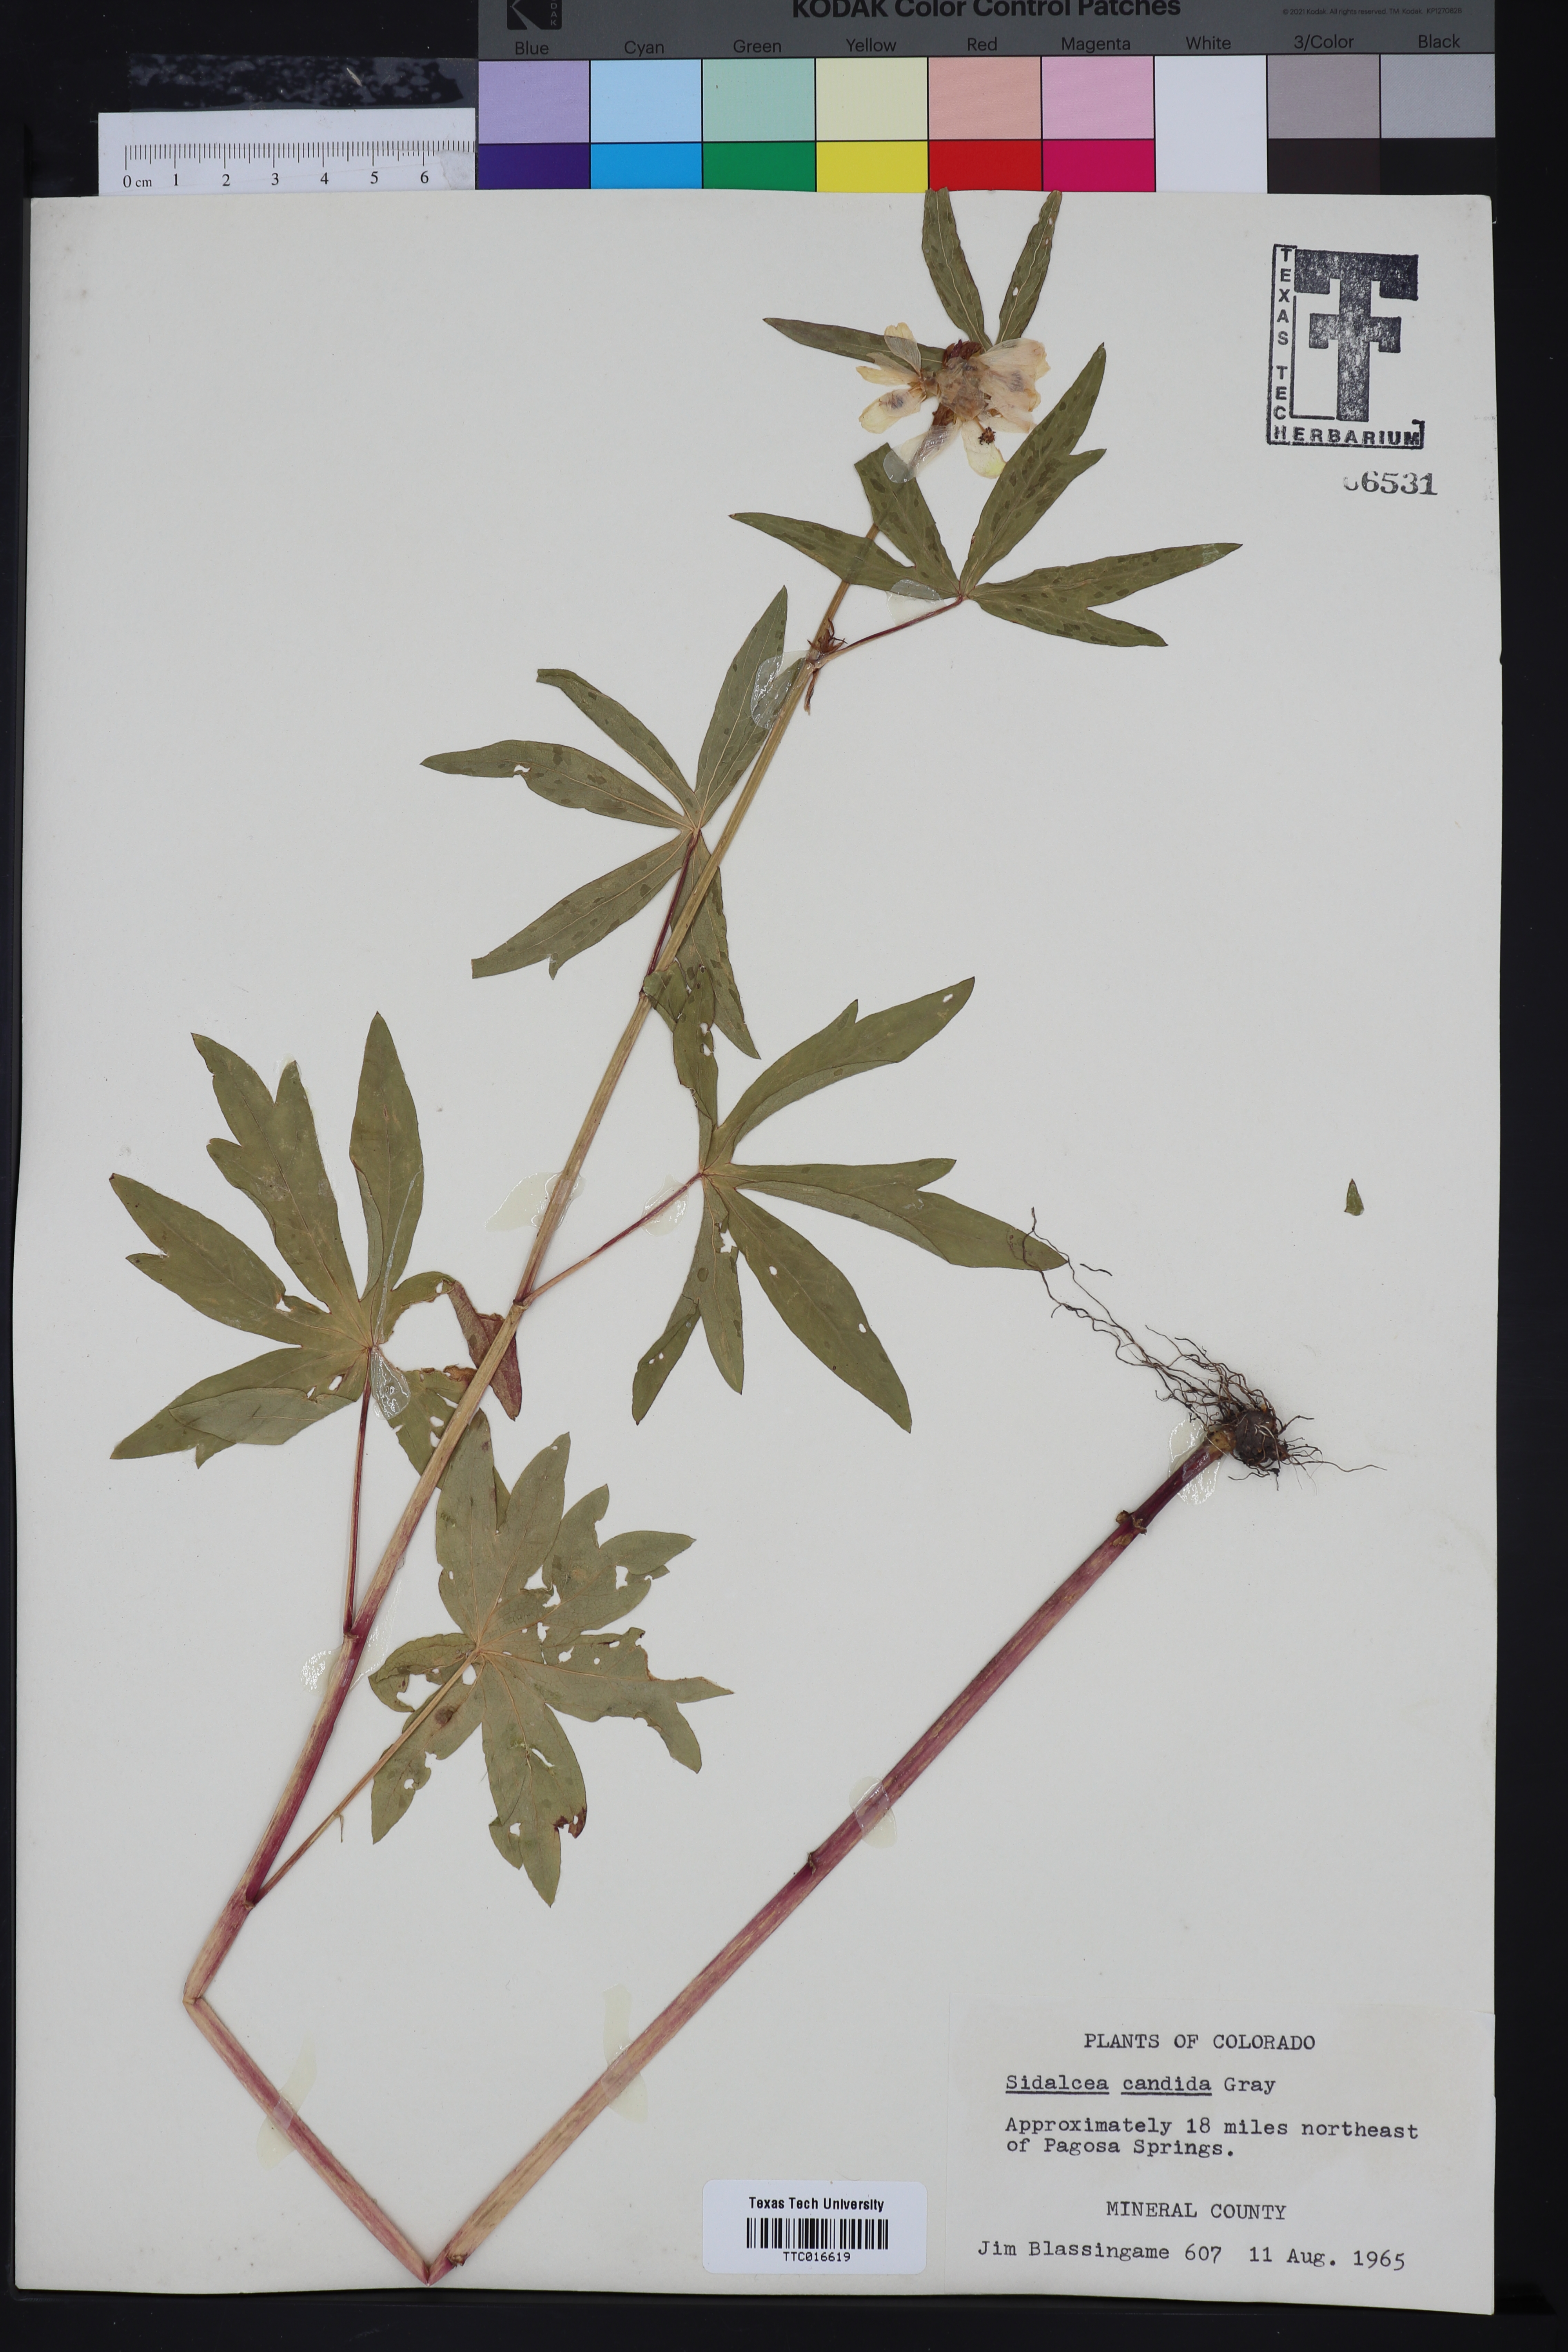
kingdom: Plantae
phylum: Tracheophyta
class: Magnoliopsida
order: Malvales
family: Malvaceae
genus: Sidalcea
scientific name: Sidalcea candida
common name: Prairie-mallow
